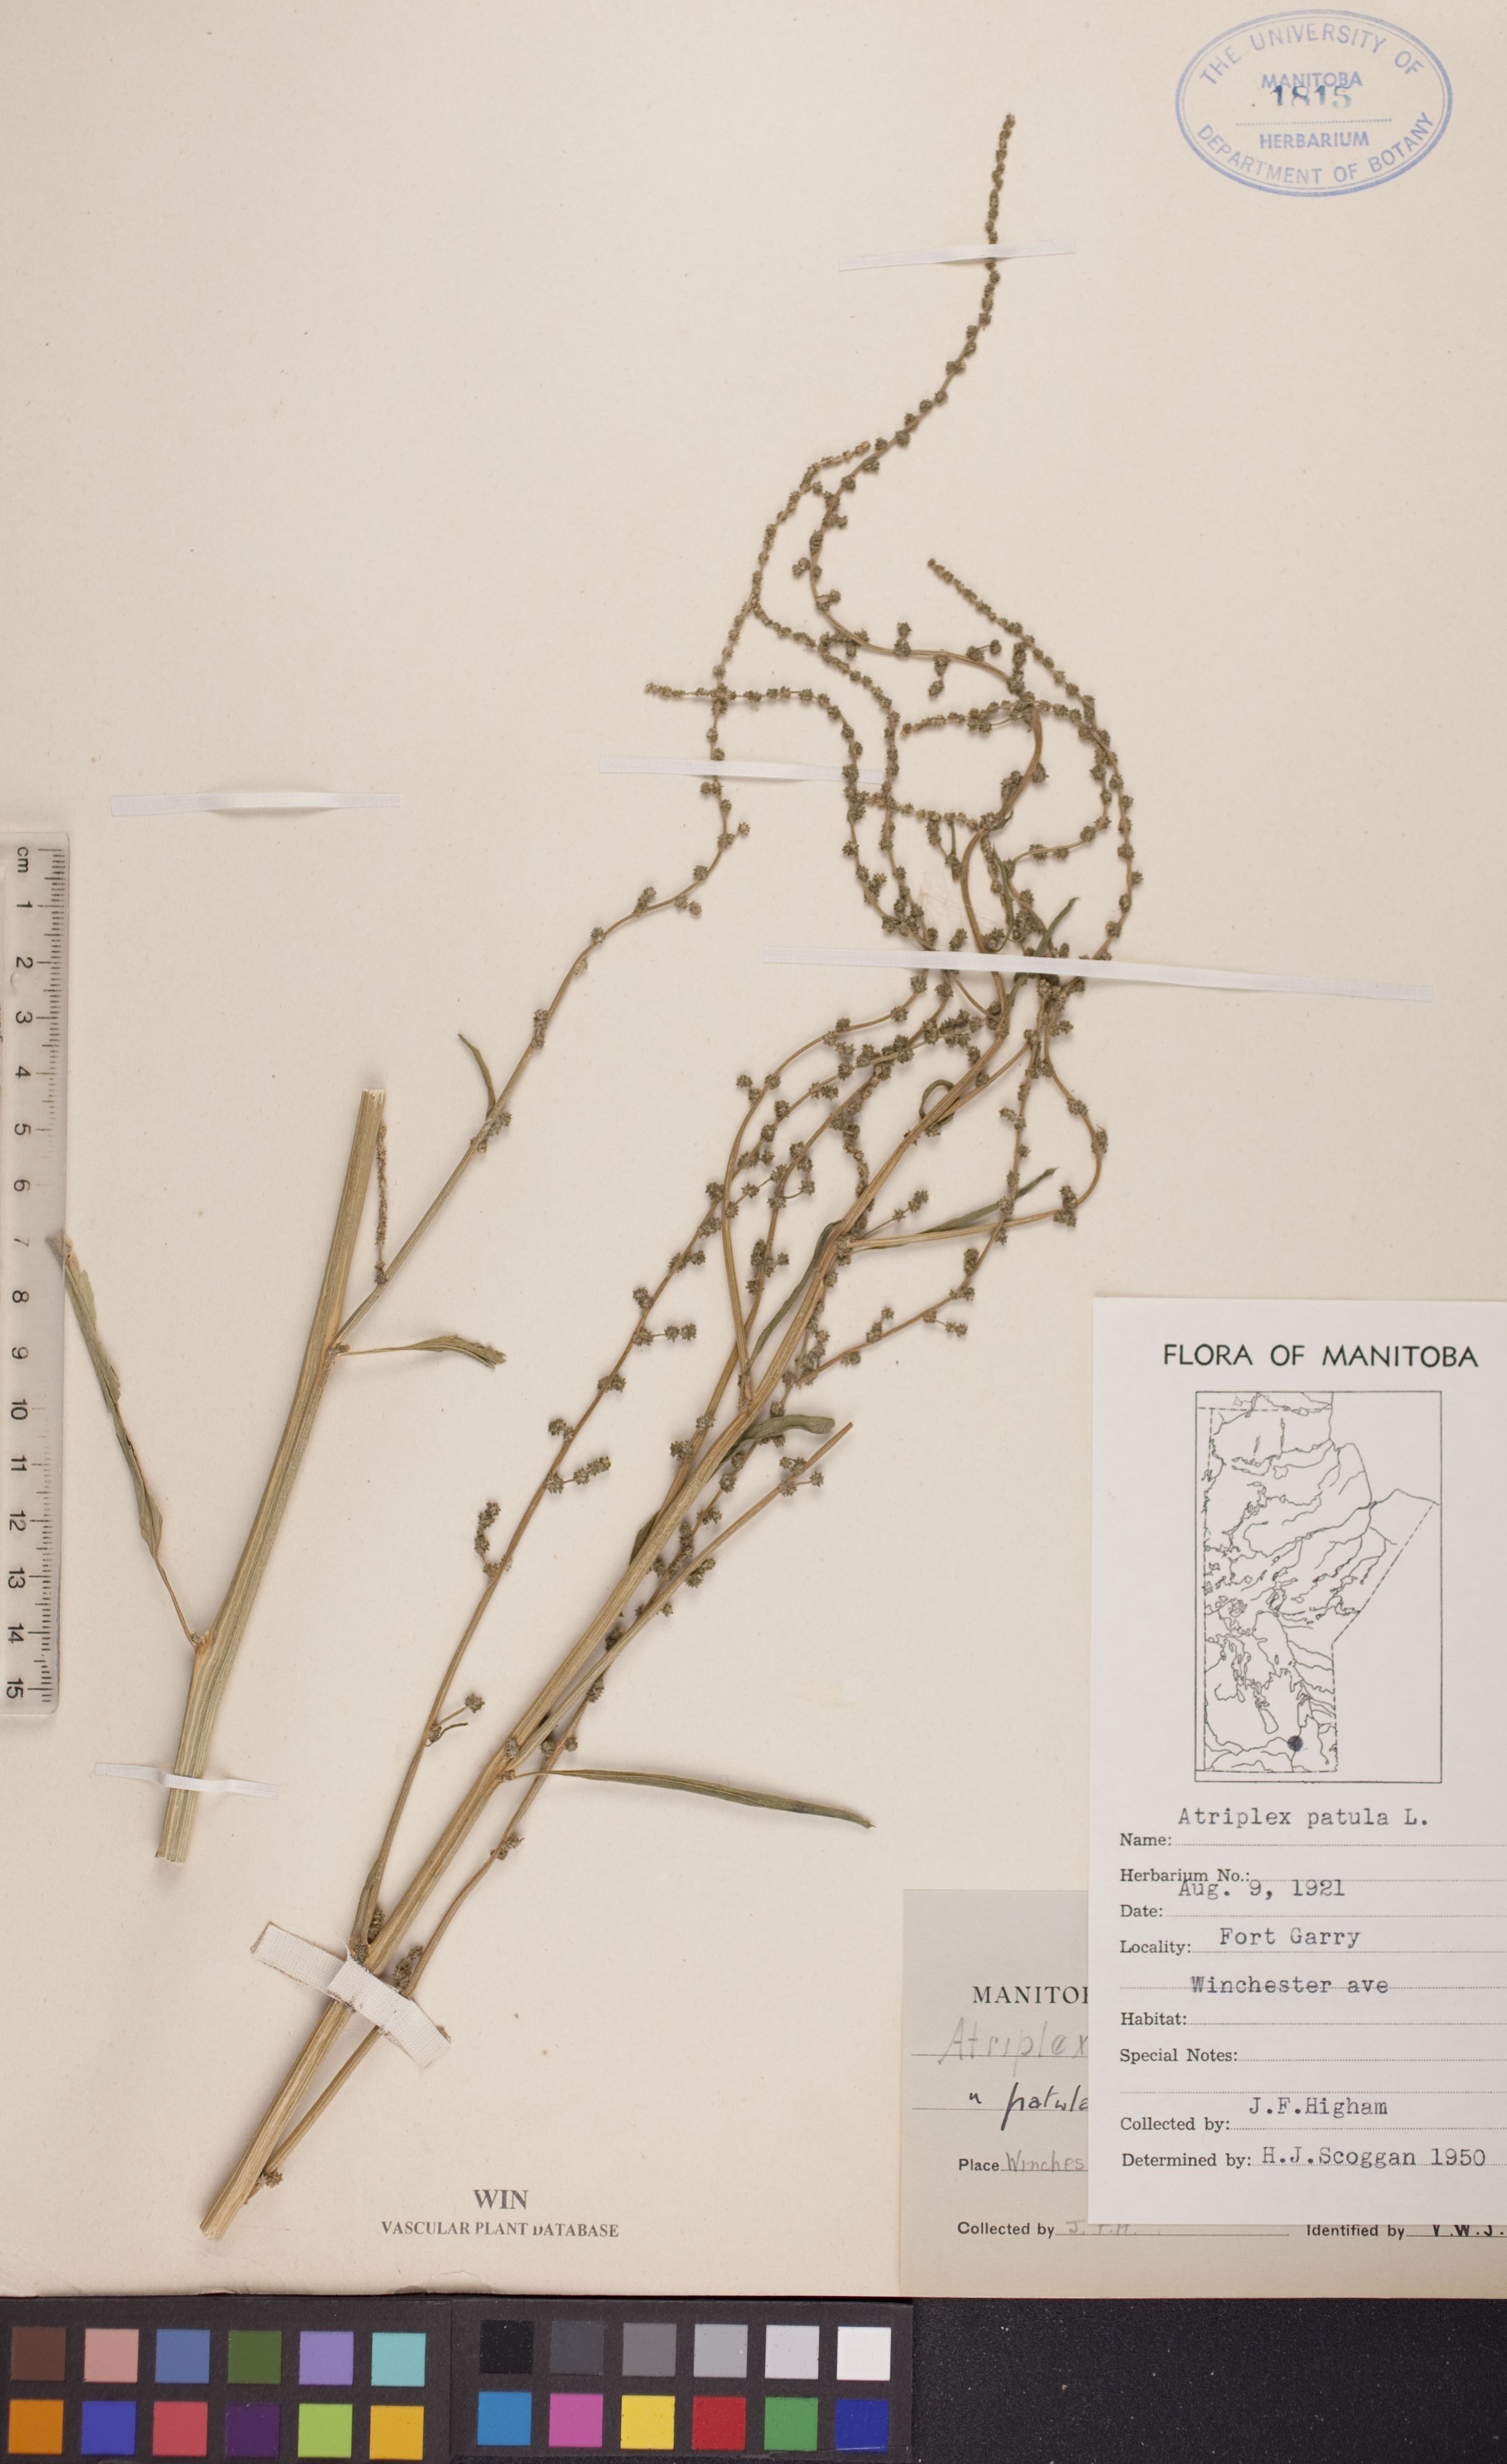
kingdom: Plantae
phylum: Tracheophyta
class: Magnoliopsida
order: Caryophyllales
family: Amaranthaceae
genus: Atriplex
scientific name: Atriplex patula
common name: Common orache
